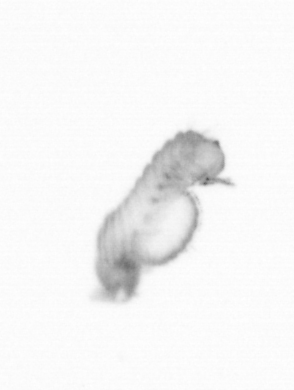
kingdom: Animalia
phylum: Annelida
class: Polychaeta
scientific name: Polychaeta
